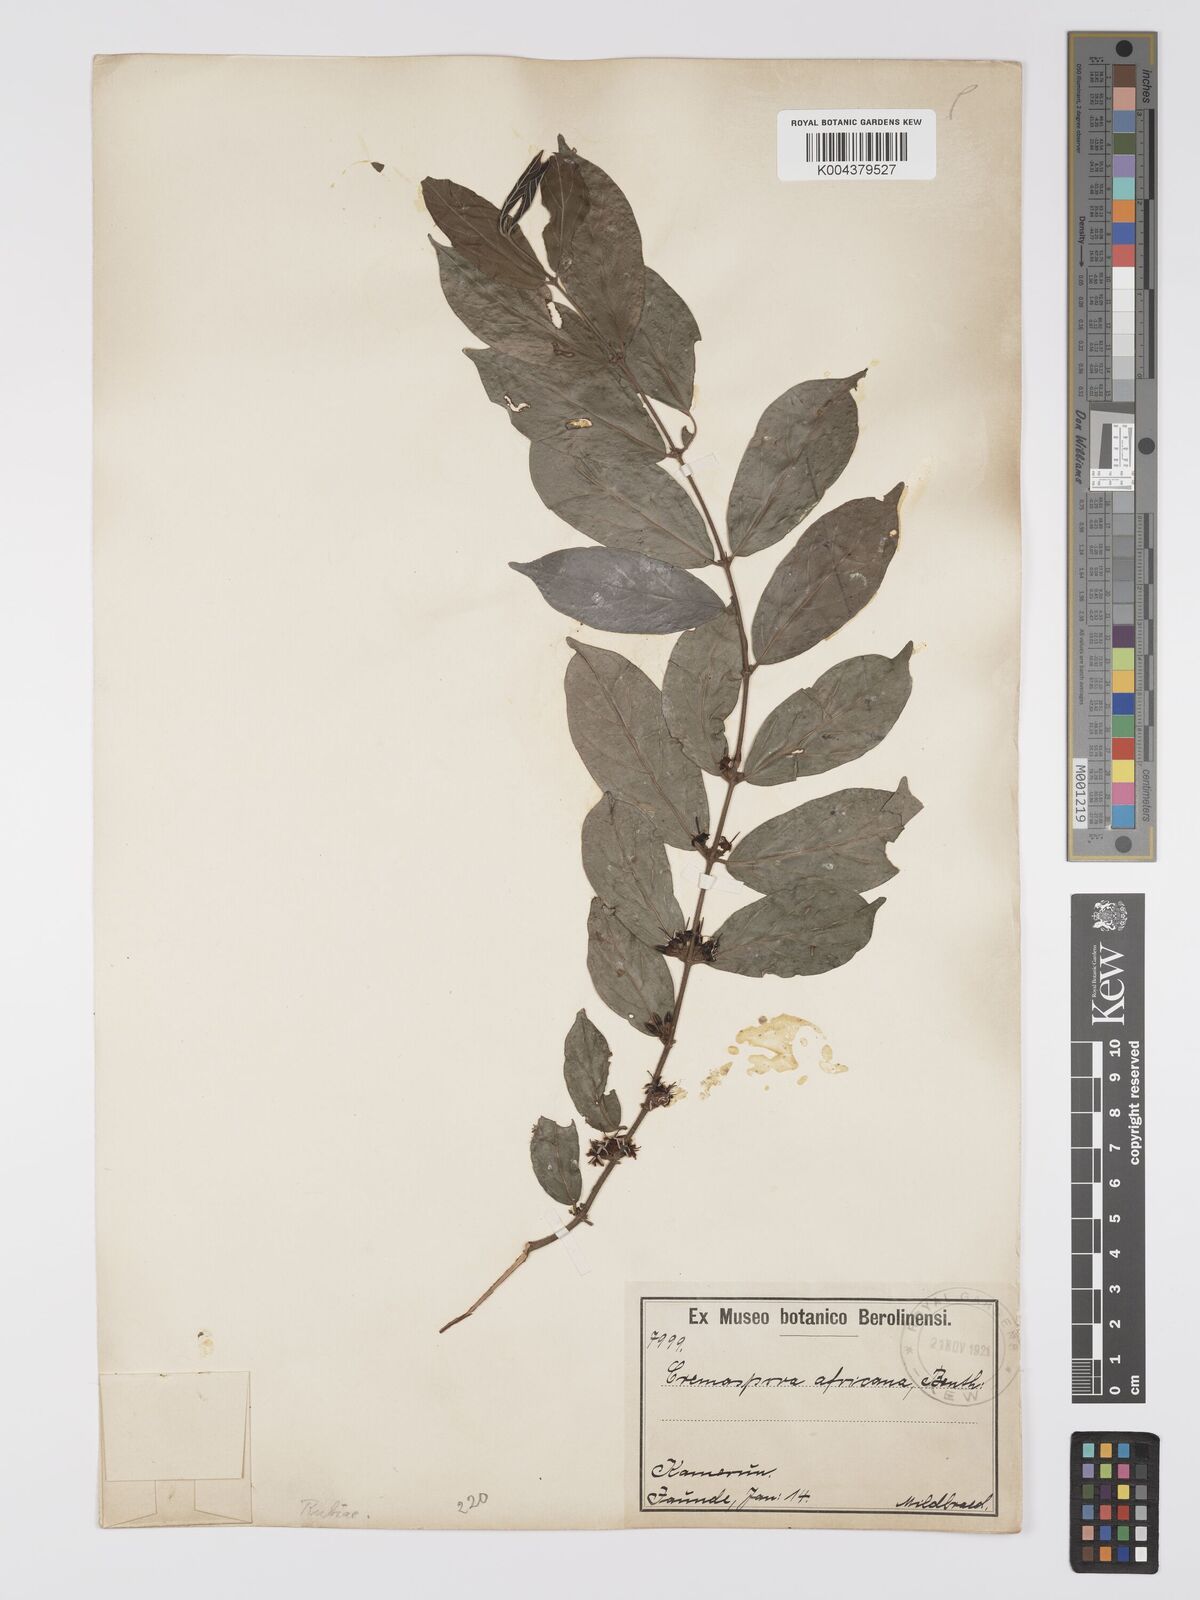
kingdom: Plantae
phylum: Tracheophyta
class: Magnoliopsida
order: Gentianales
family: Rubiaceae
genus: Cremaspora
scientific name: Cremaspora triflora
